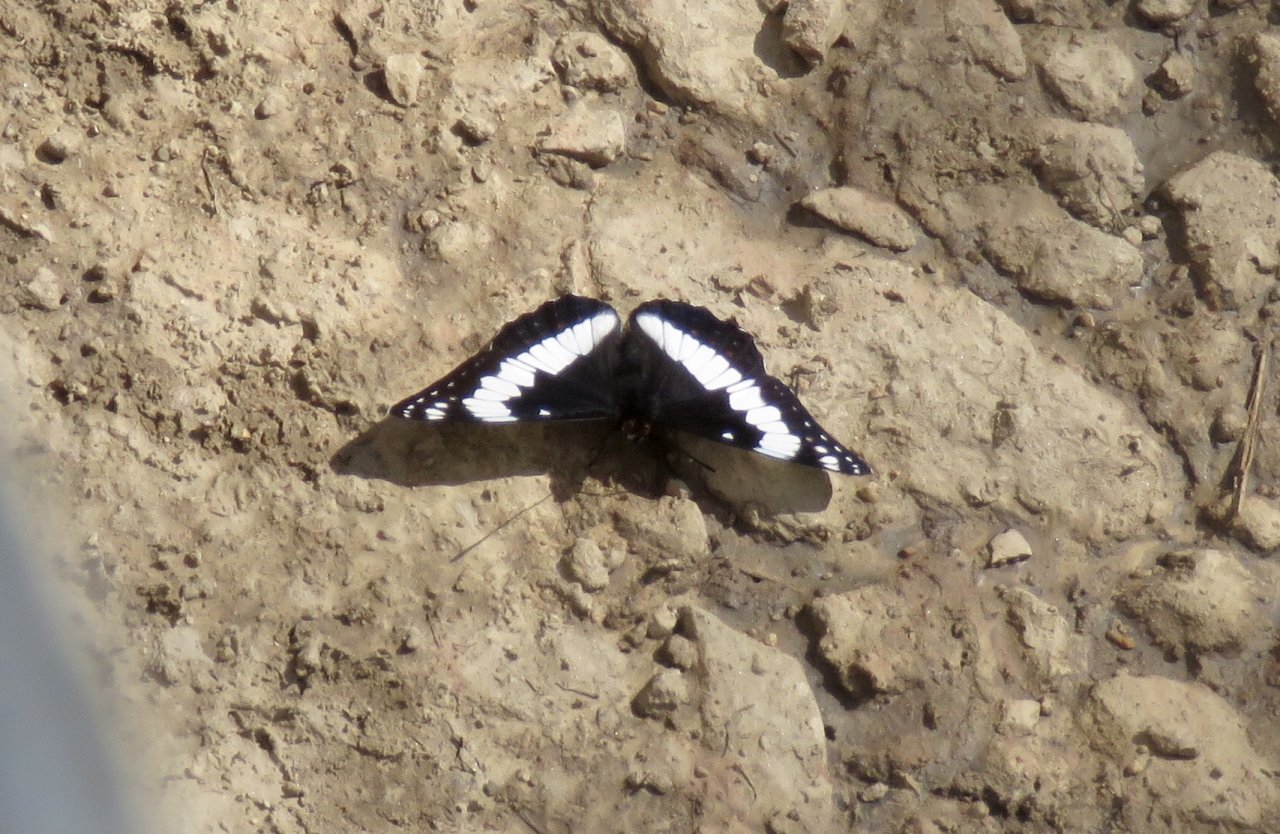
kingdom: Animalia
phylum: Arthropoda
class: Insecta
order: Lepidoptera
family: Nymphalidae
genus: Limenitis
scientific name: Limenitis weidemeyerii
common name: Weidemeyer's Admiral
